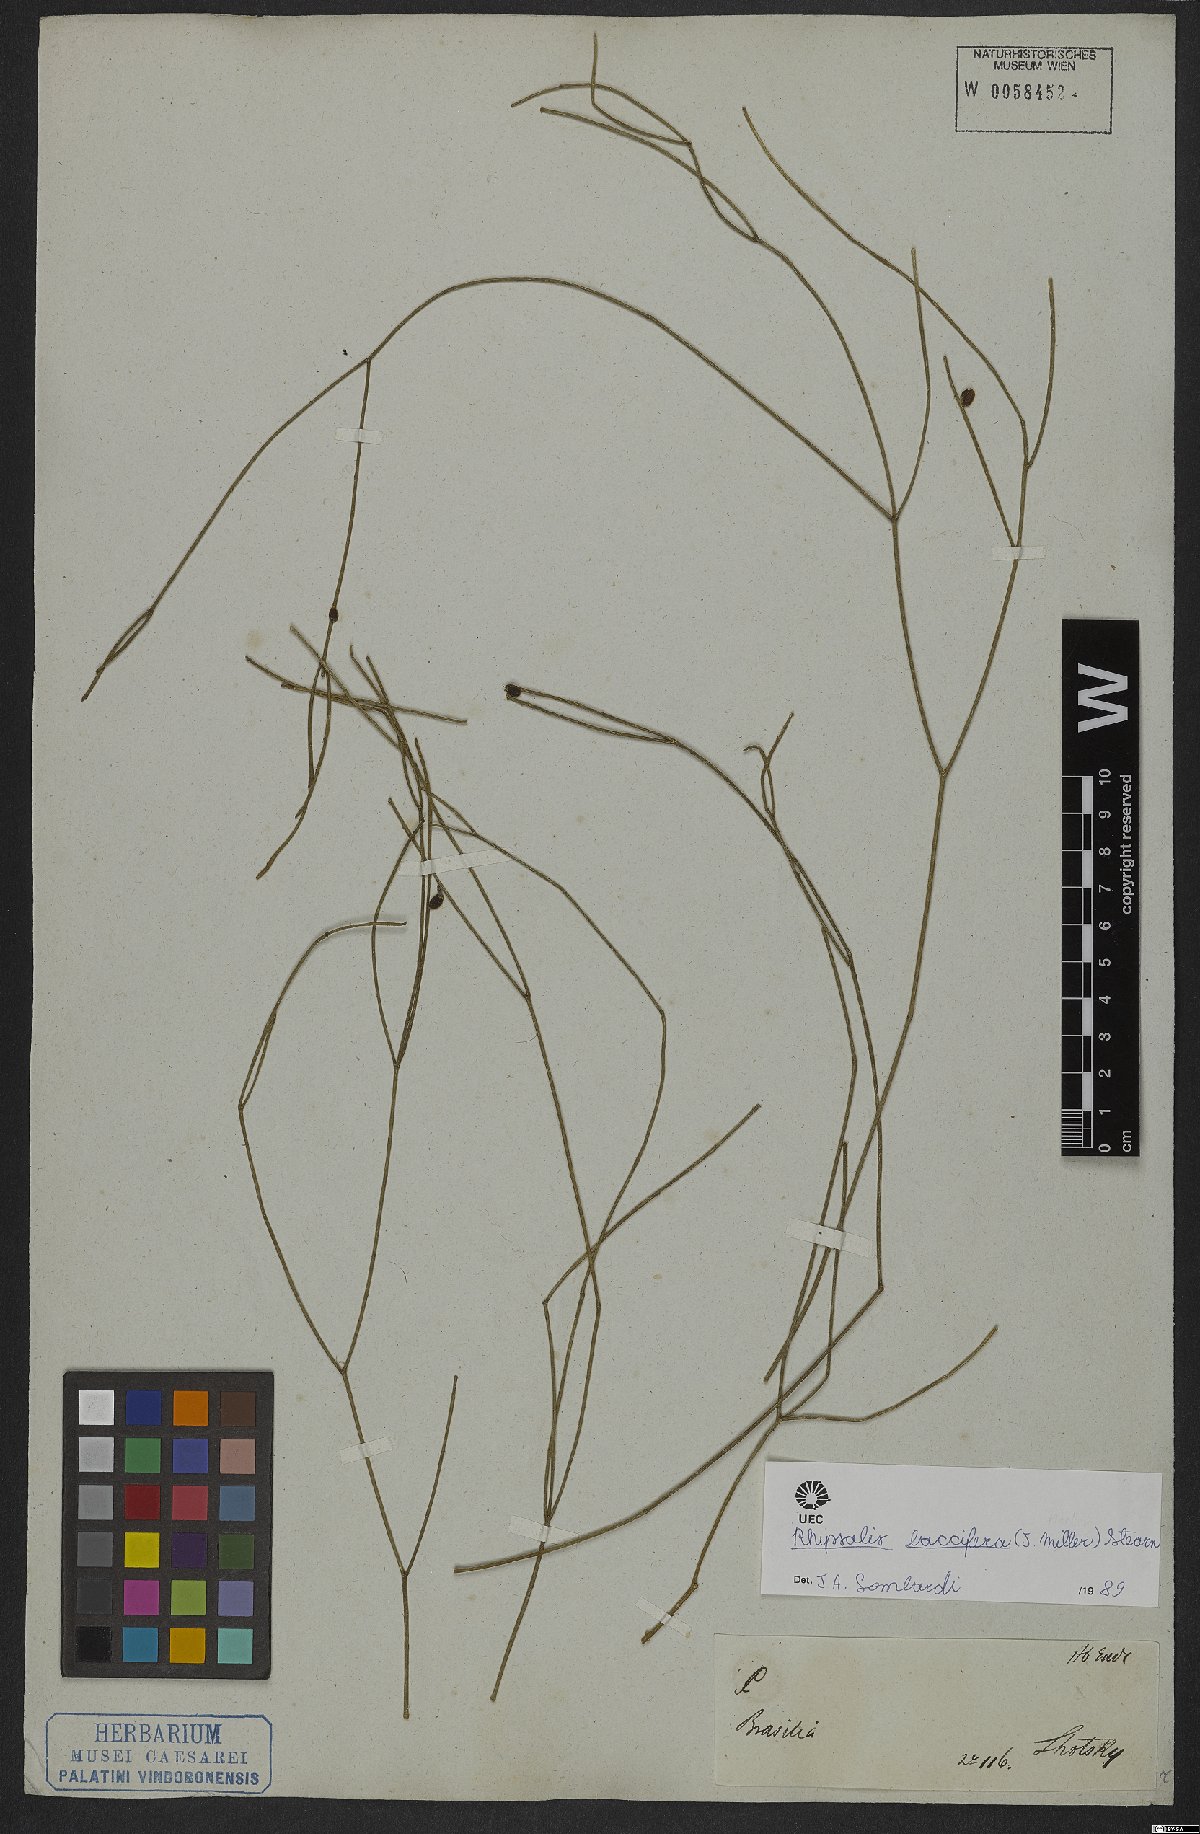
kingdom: Plantae
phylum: Tracheophyta
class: Magnoliopsida
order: Caryophyllales
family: Cactaceae
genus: Rhipsalis
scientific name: Rhipsalis baccifera
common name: Mistletoe cactus
